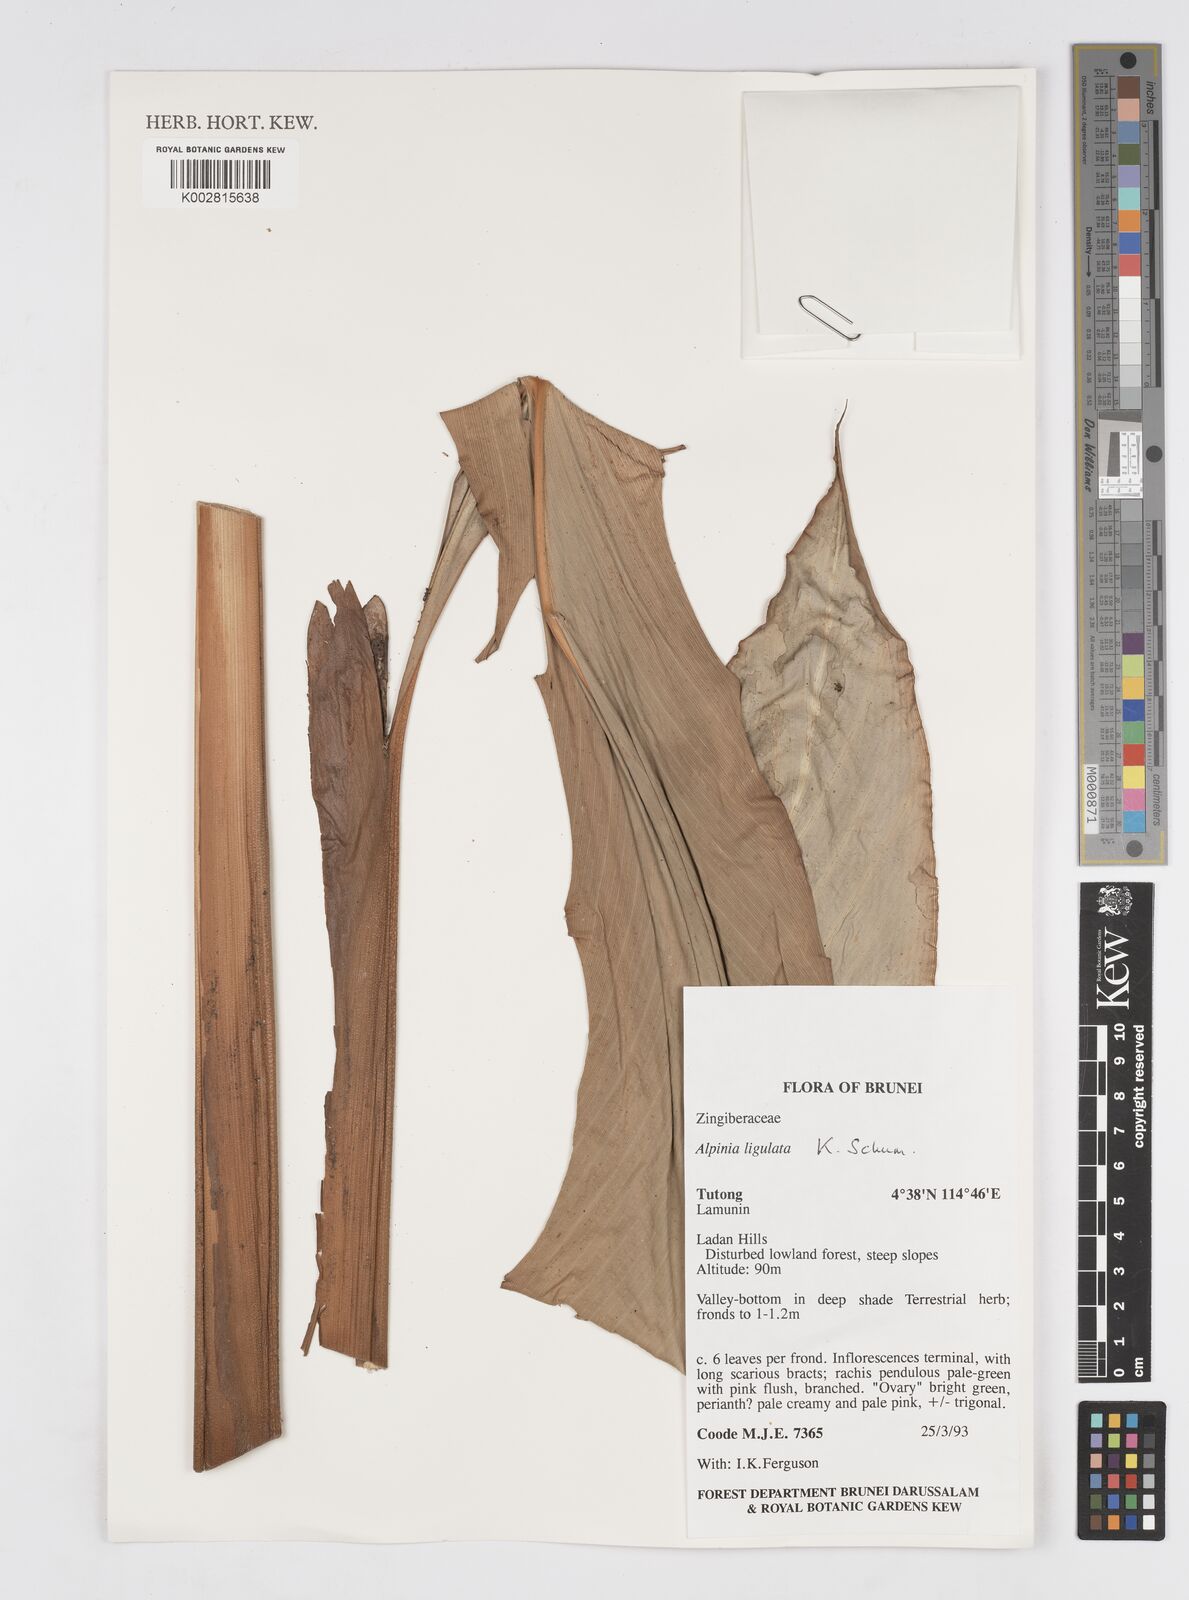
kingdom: Plantae
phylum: Tracheophyta
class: Liliopsida
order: Zingiberales
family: Zingiberaceae
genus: Alpinia
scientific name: Alpinia ligulata
